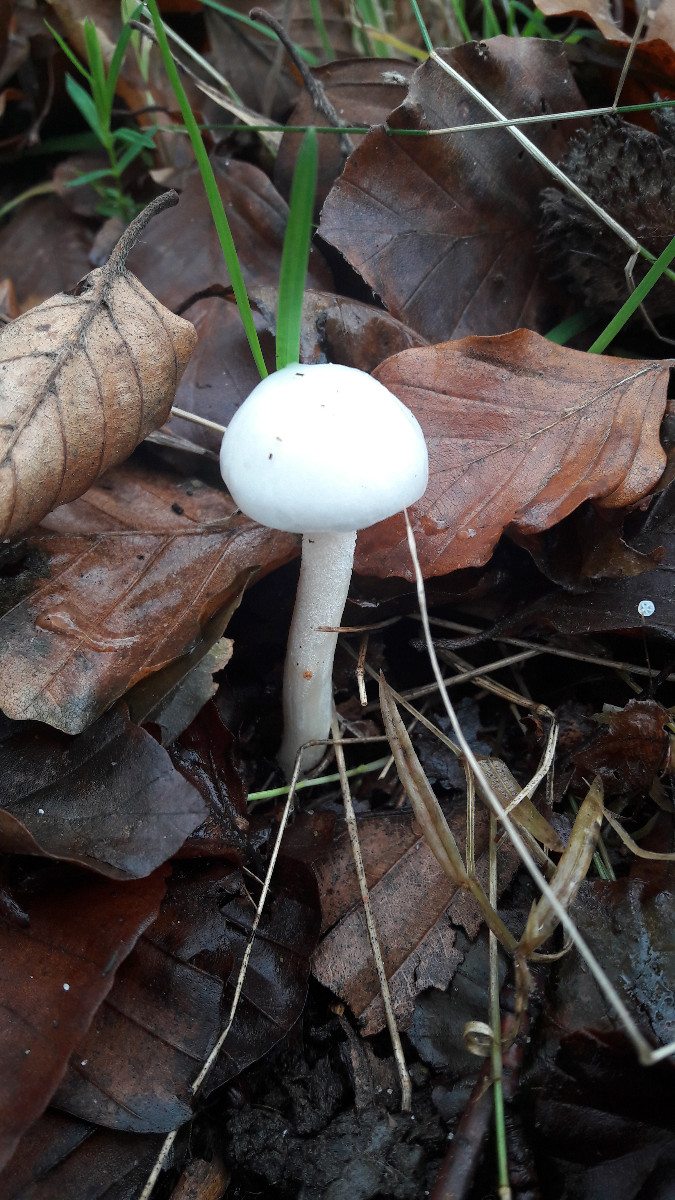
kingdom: Fungi
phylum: Basidiomycota
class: Agaricomycetes
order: Agaricales
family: Hygrophoraceae
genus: Hygrophorus
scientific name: Hygrophorus
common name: sneglehat
